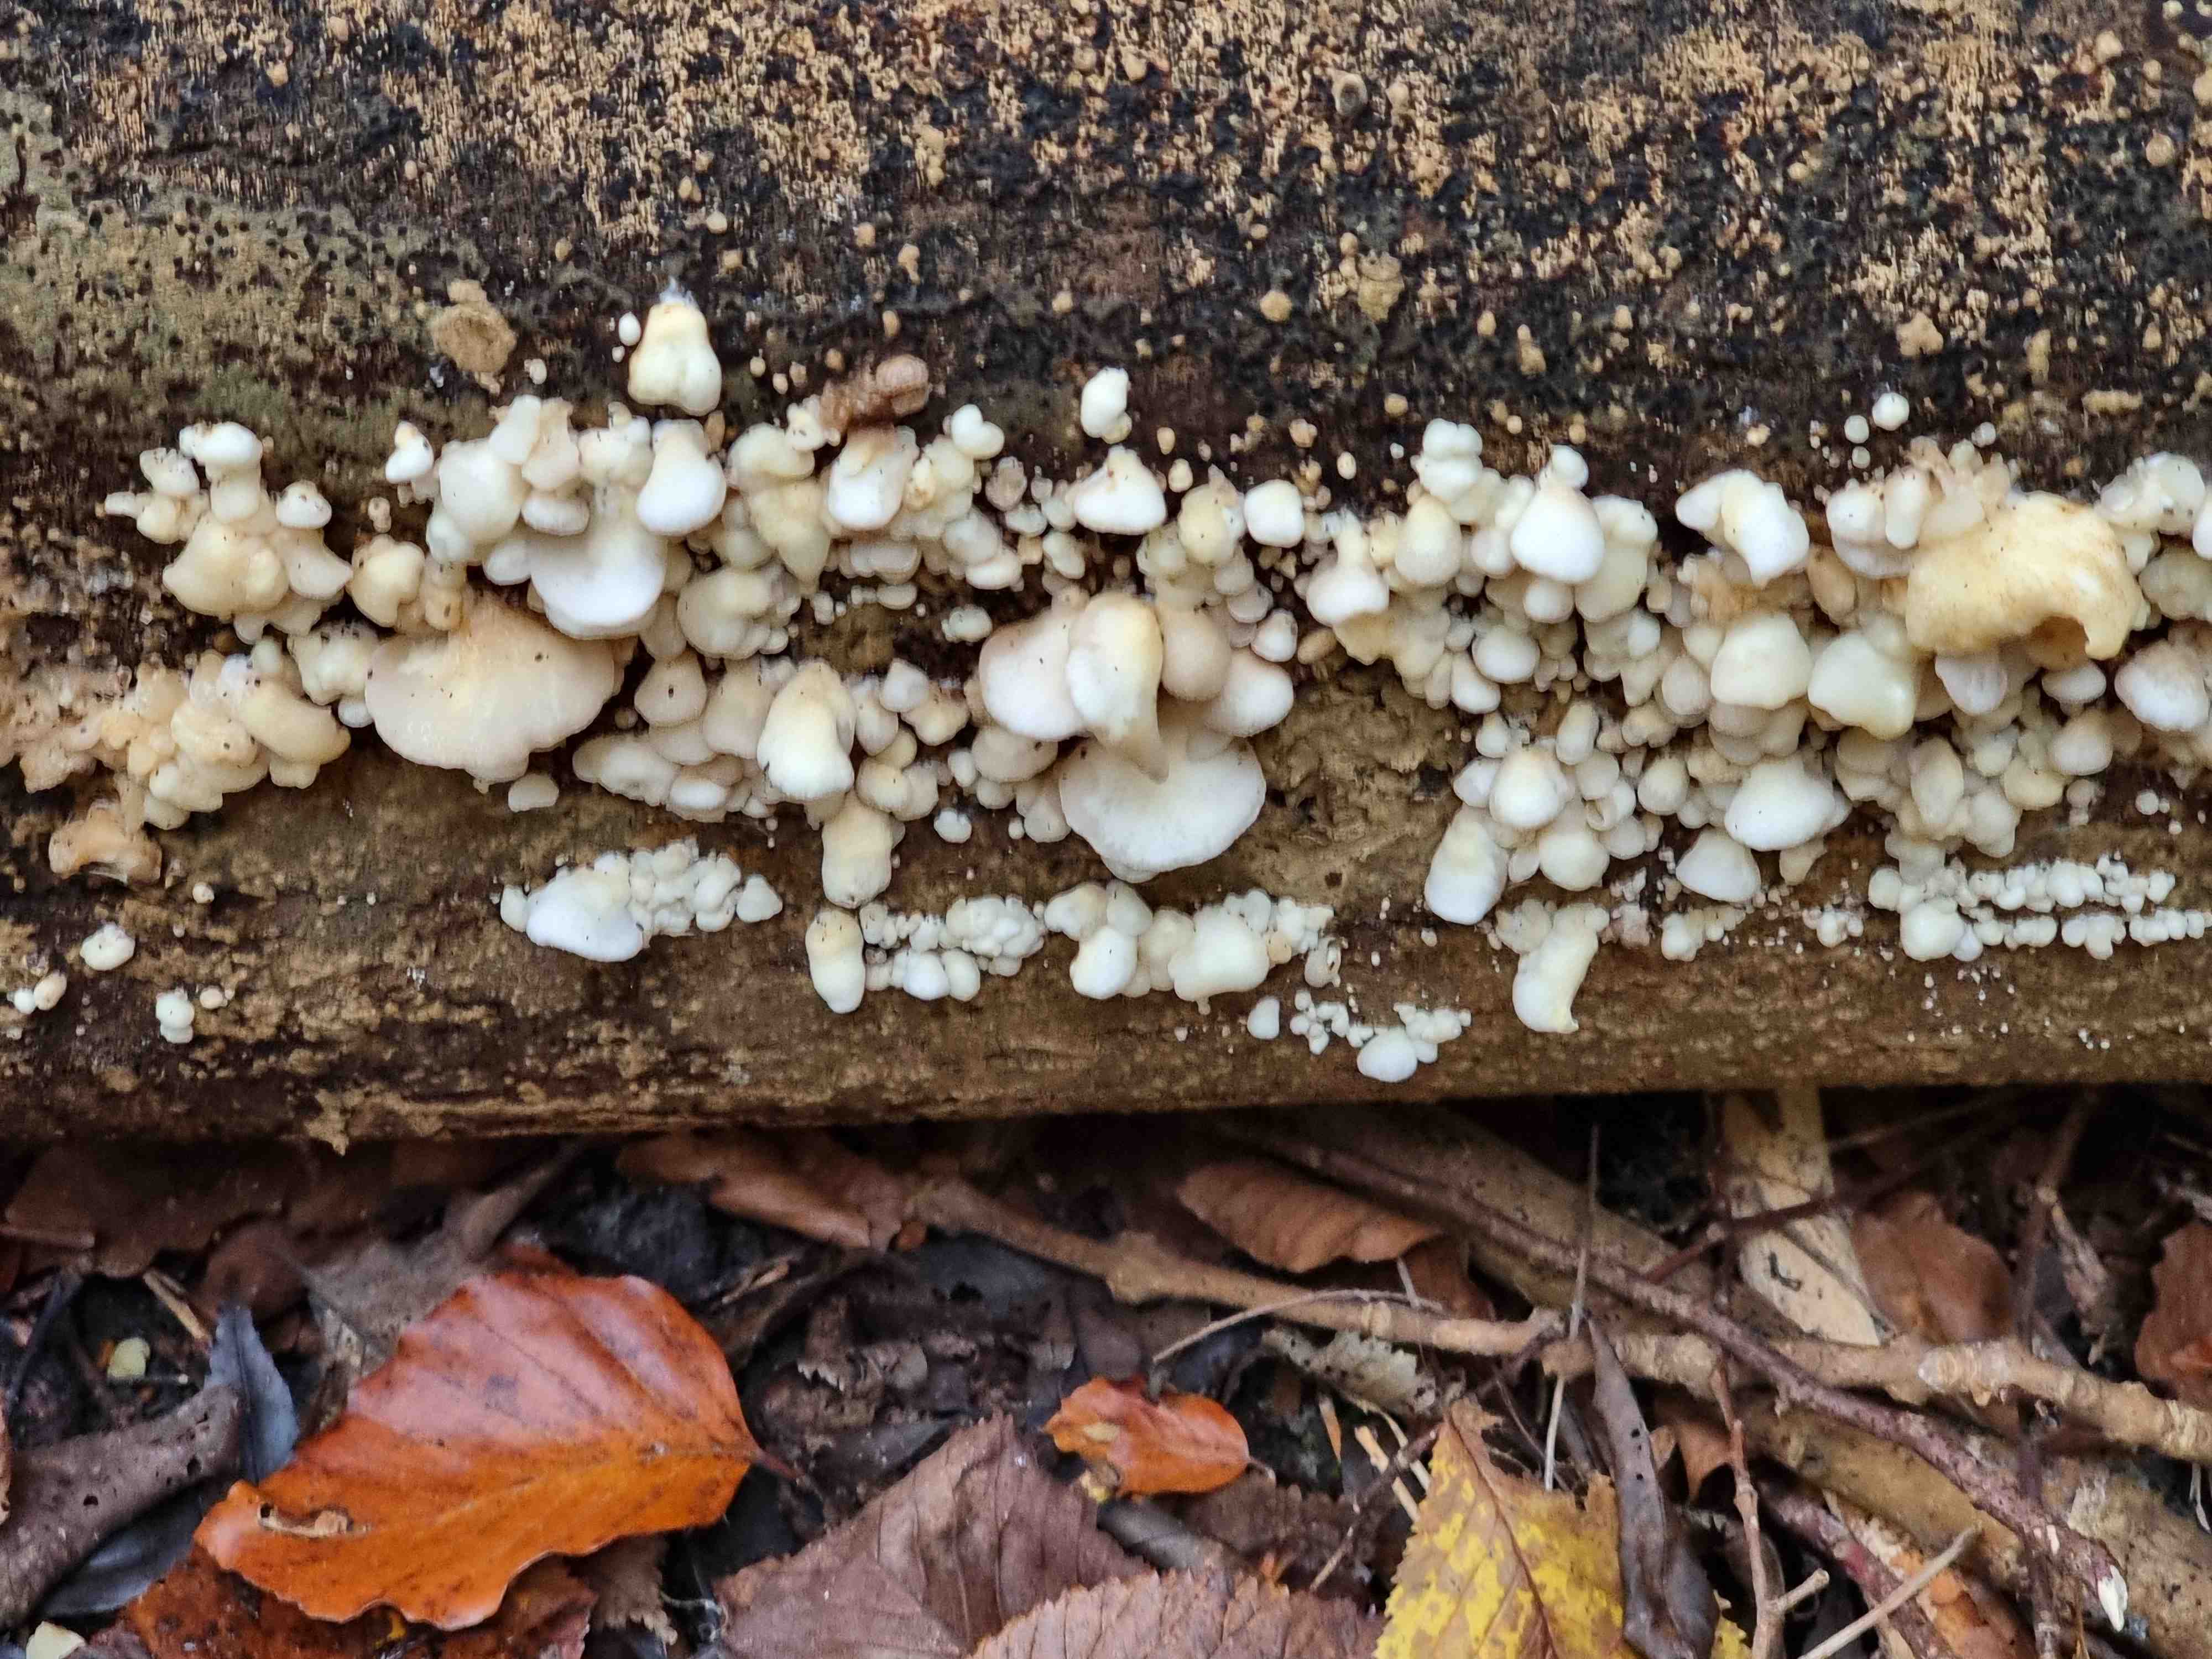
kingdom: Fungi
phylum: Basidiomycota
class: Agaricomycetes
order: Agaricales
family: Crepidotaceae
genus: Crepidotus
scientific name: Crepidotus mollis
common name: blød muslingesvamp
